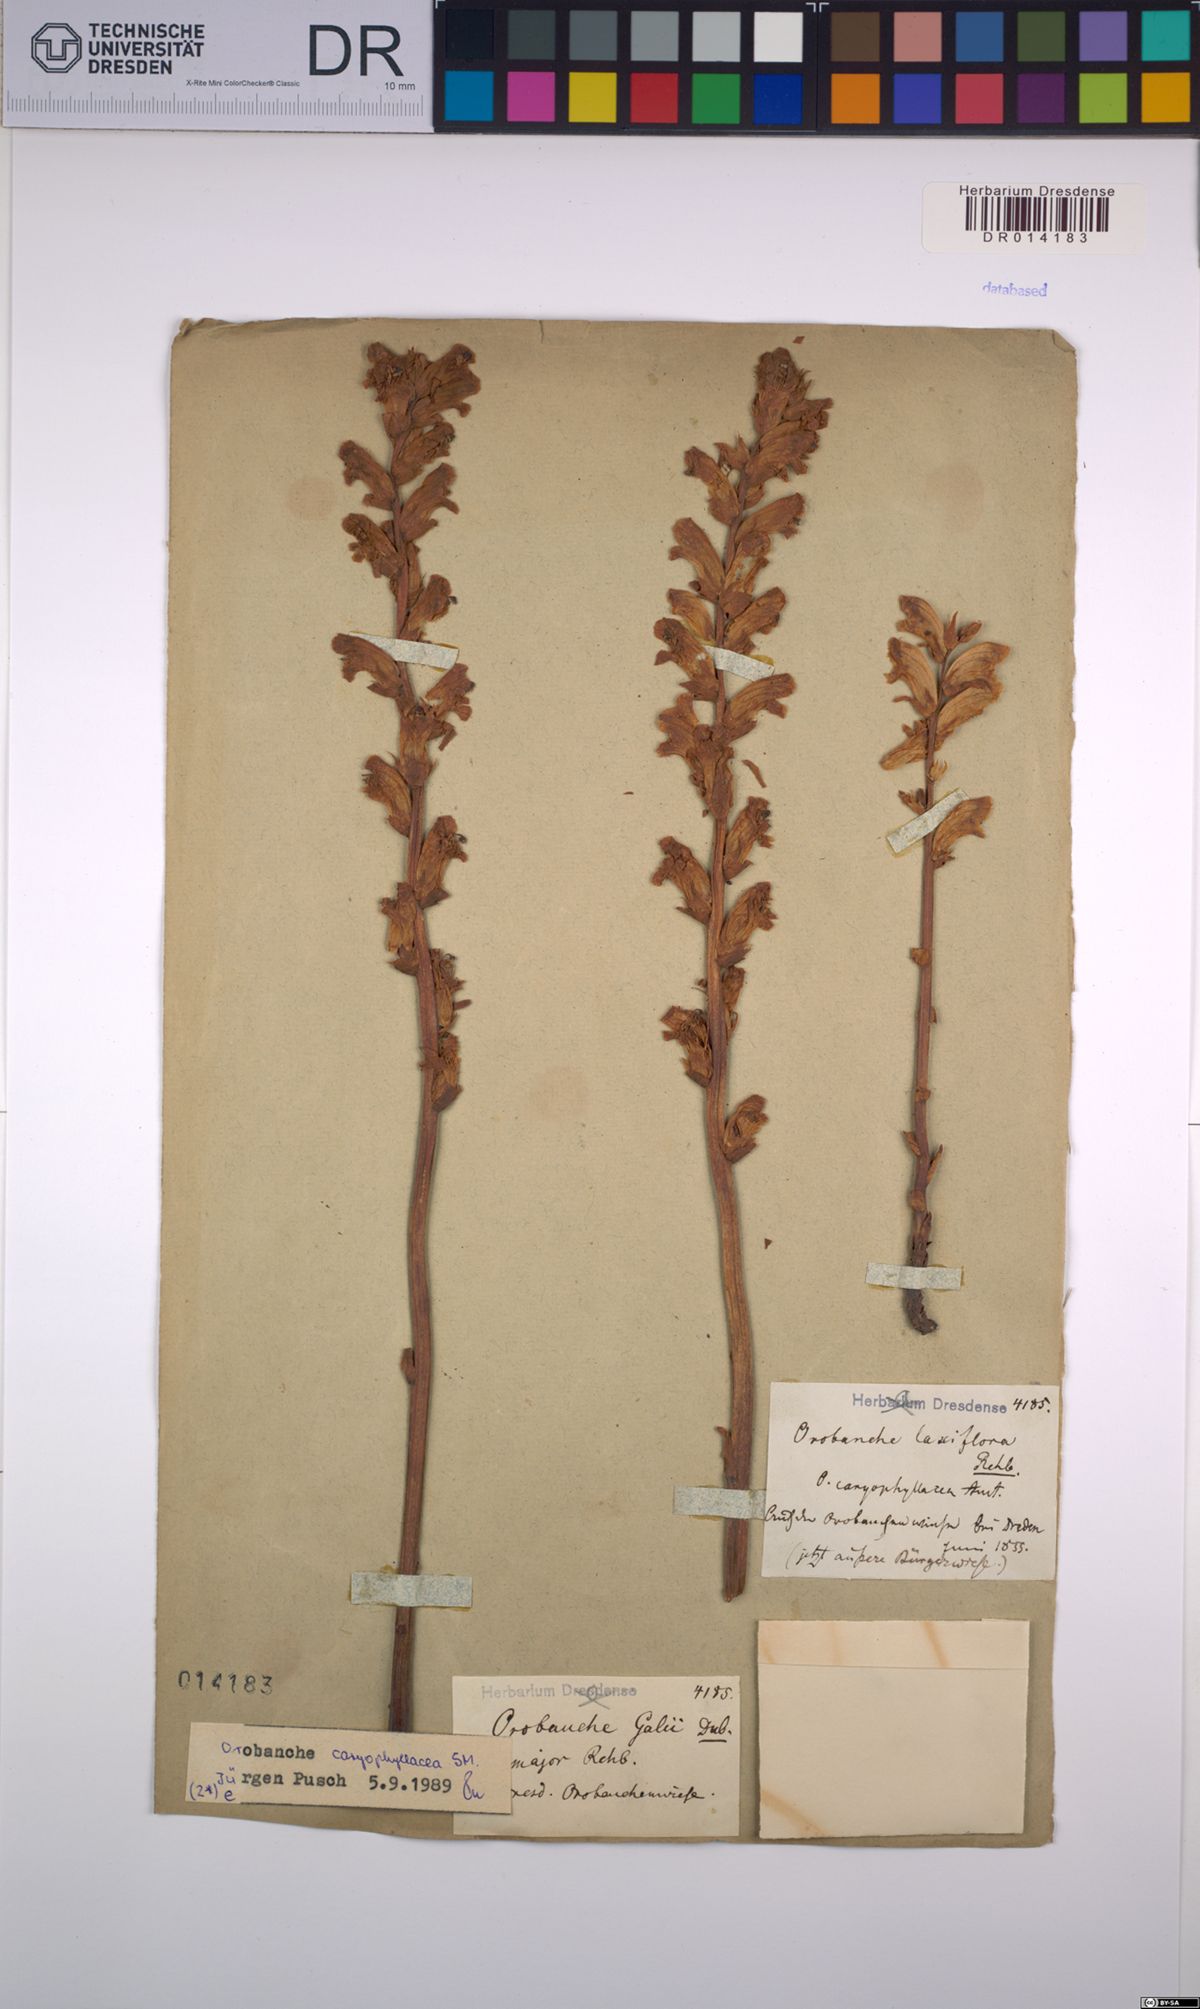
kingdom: Plantae
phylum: Tracheophyta
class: Magnoliopsida
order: Lamiales
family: Orobanchaceae
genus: Orobanche
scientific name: Orobanche caryophyllacea
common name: Bedstraw broomrape
